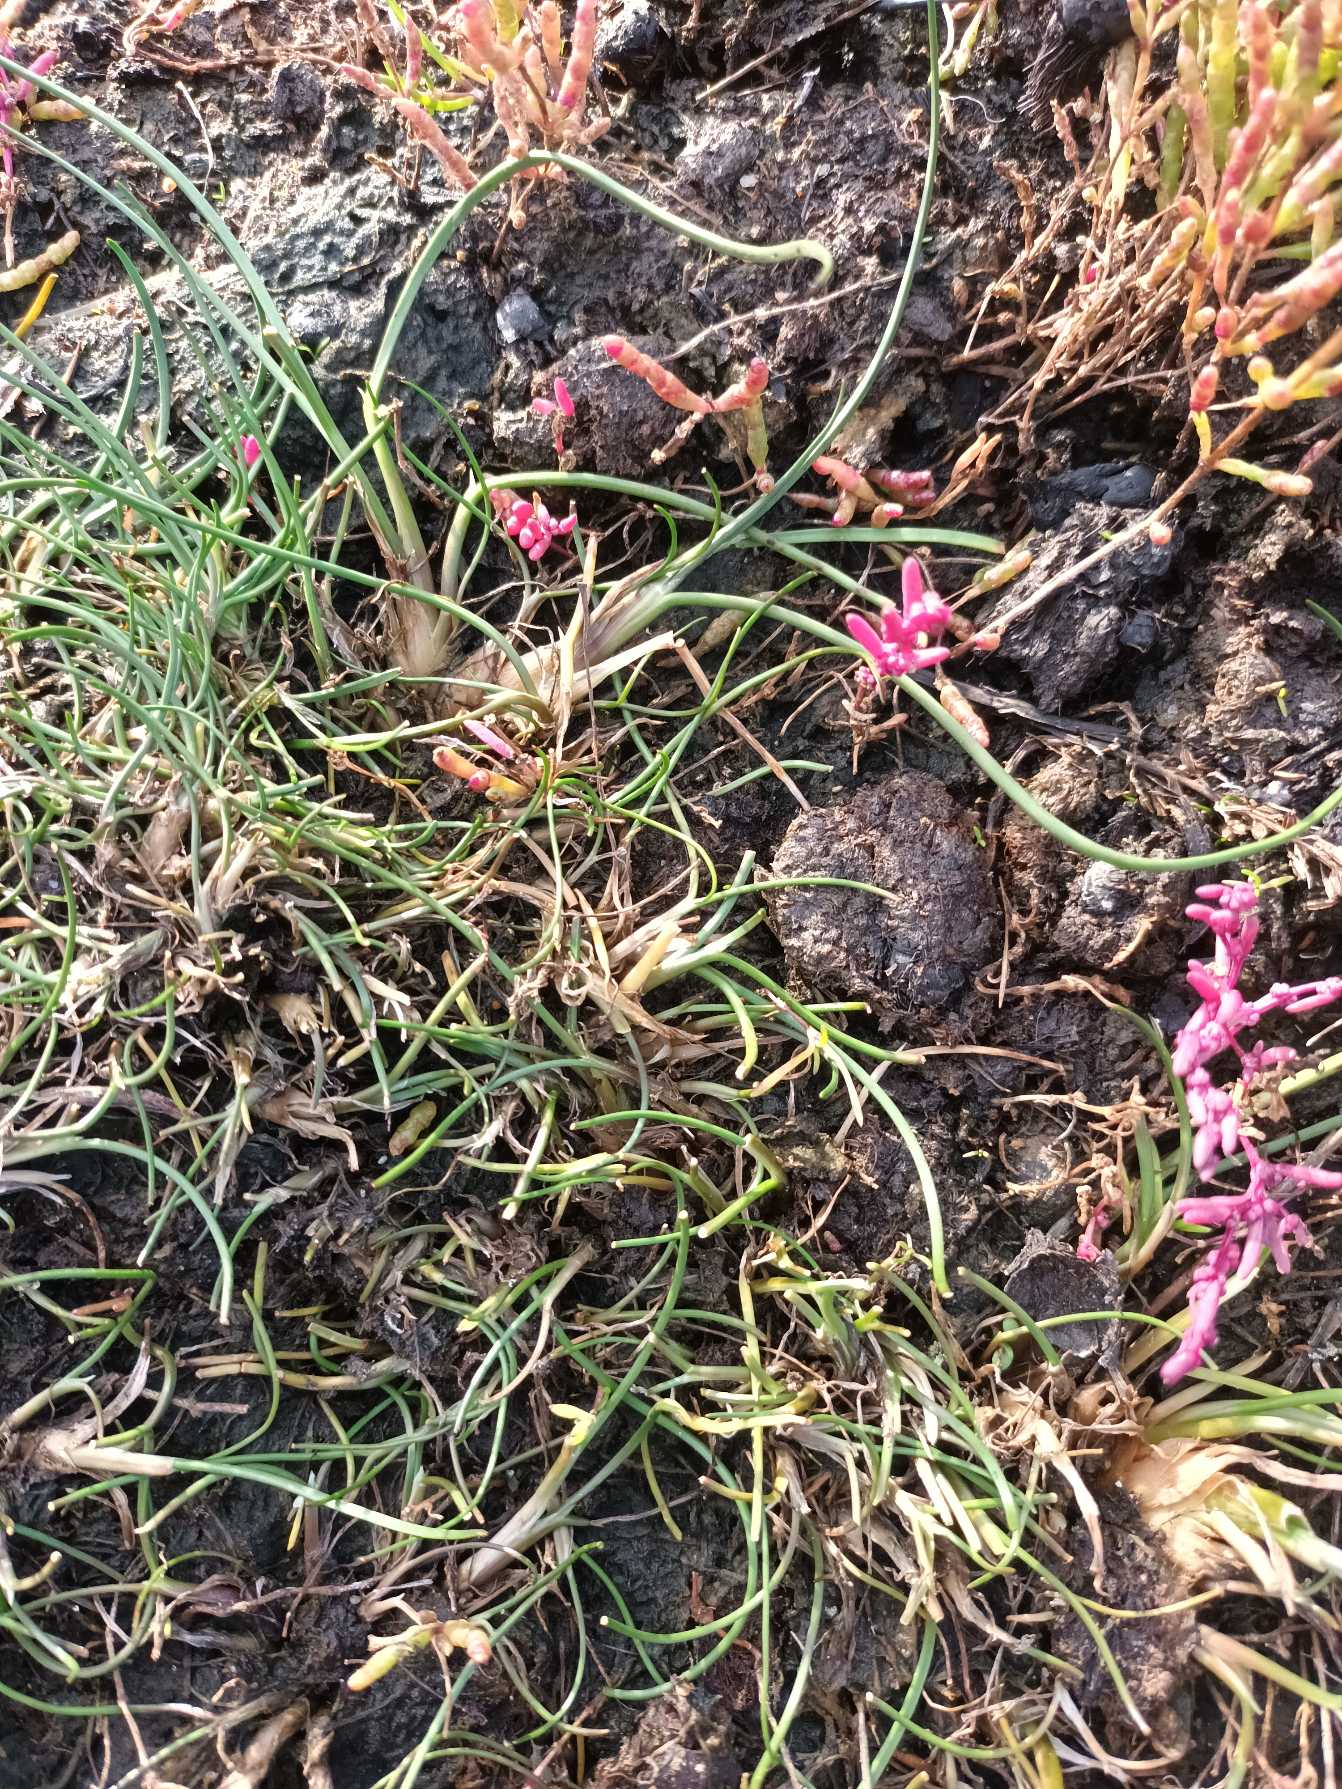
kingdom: Plantae
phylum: Tracheophyta
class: Liliopsida
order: Poales
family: Juncaceae
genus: Juncus
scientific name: Juncus bulbosus
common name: Liden siv
